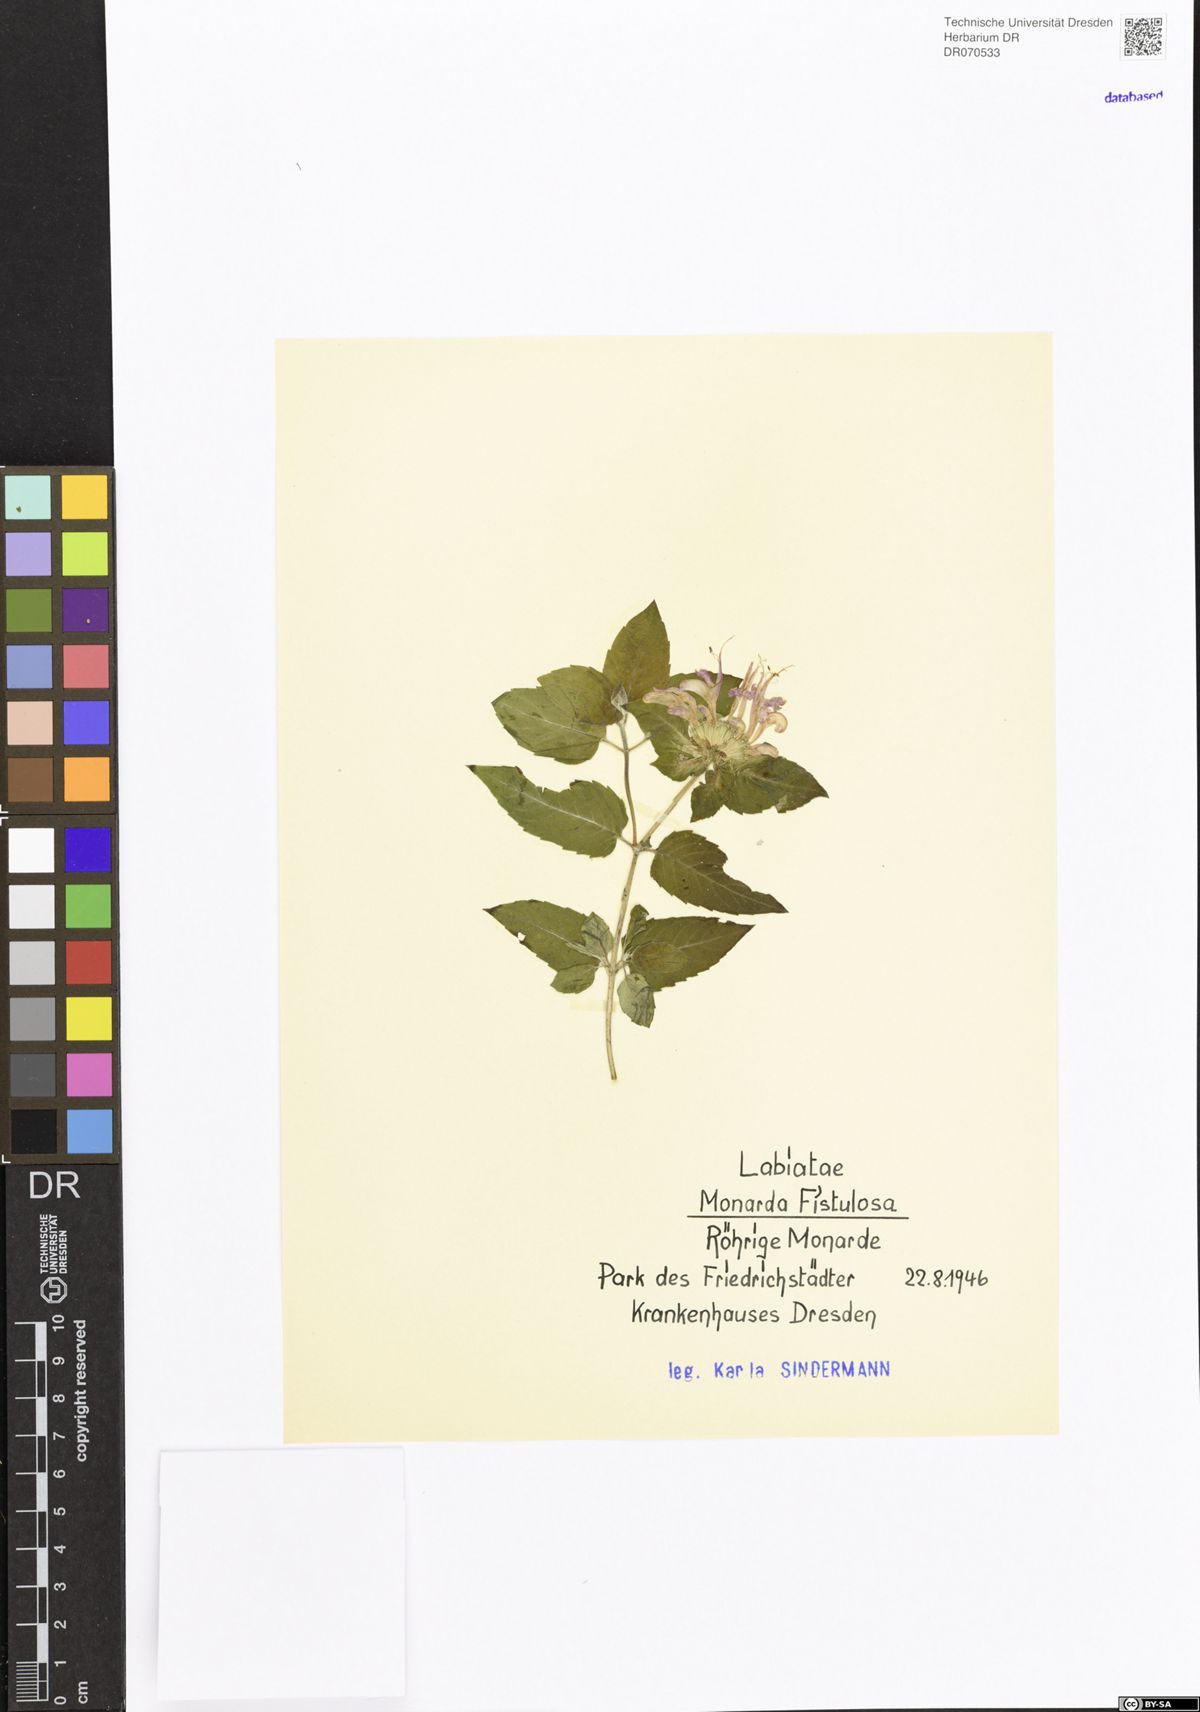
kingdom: Plantae
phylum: Tracheophyta
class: Magnoliopsida
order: Lamiales
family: Lamiaceae
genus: Monarda
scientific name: Monarda fistulosa
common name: Purple beebalm
